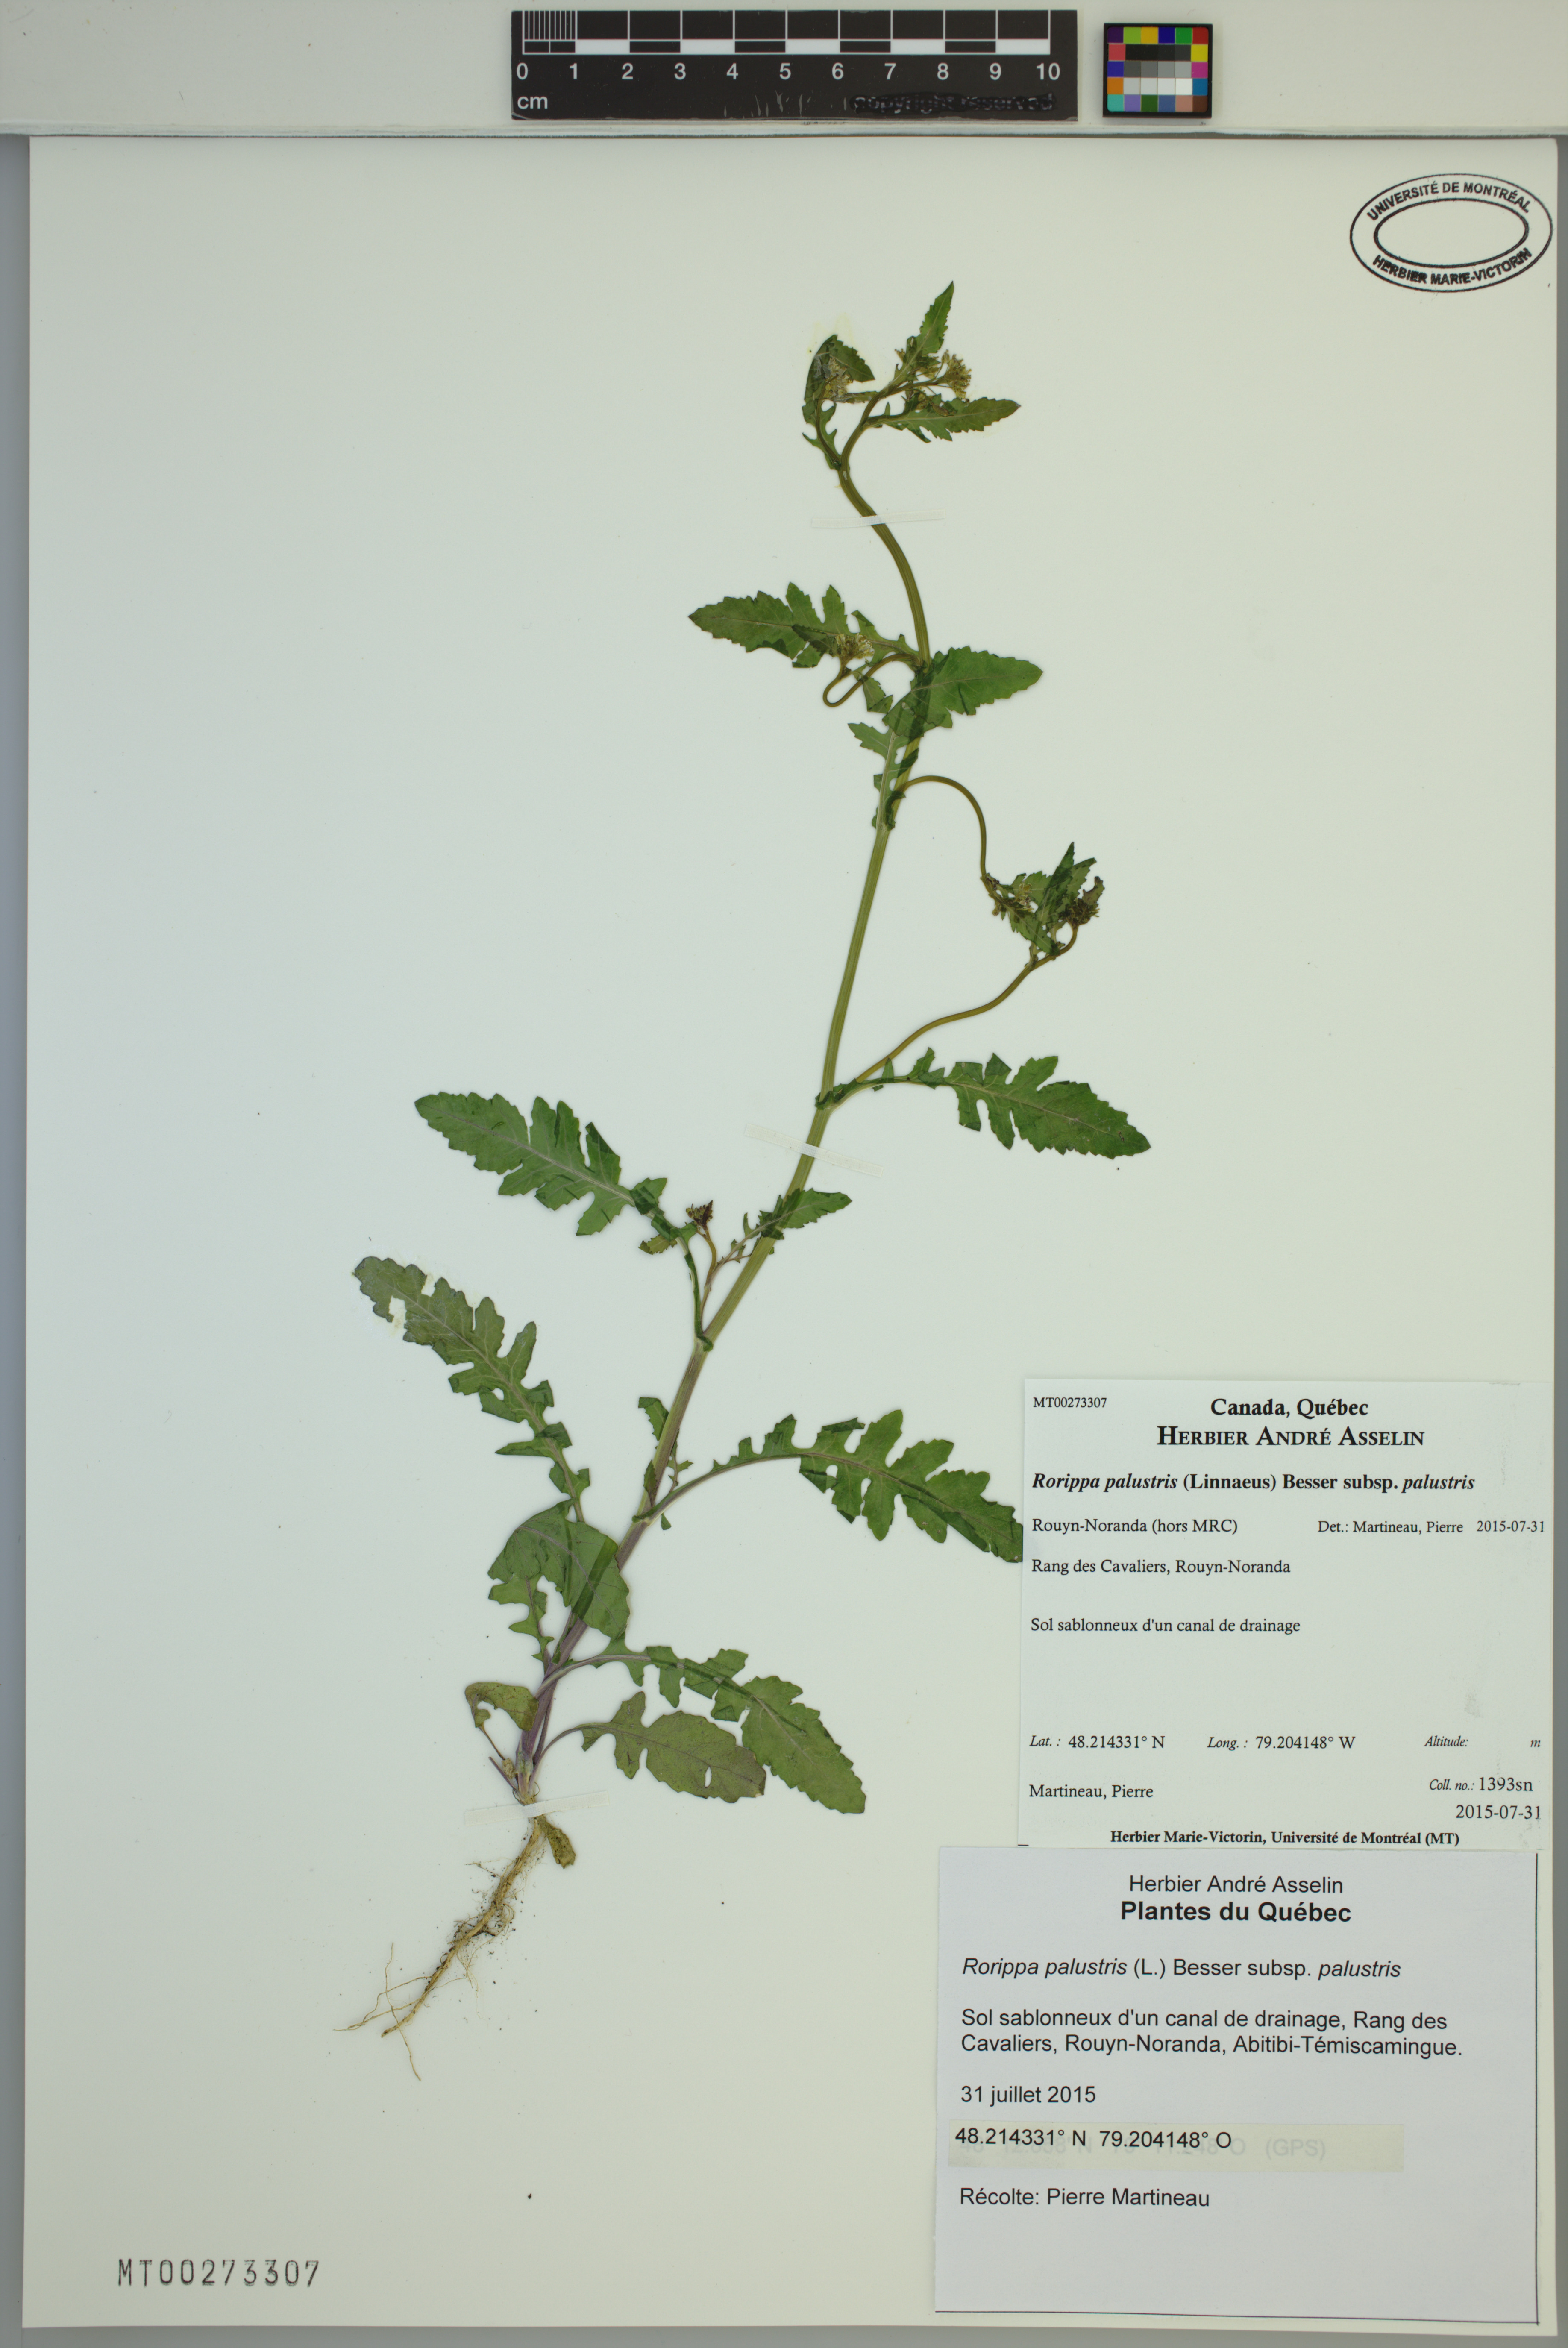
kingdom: Plantae
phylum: Tracheophyta
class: Magnoliopsida
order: Brassicales
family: Brassicaceae
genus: Rorippa
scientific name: Rorippa palustris
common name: Marsh yellow-cress
